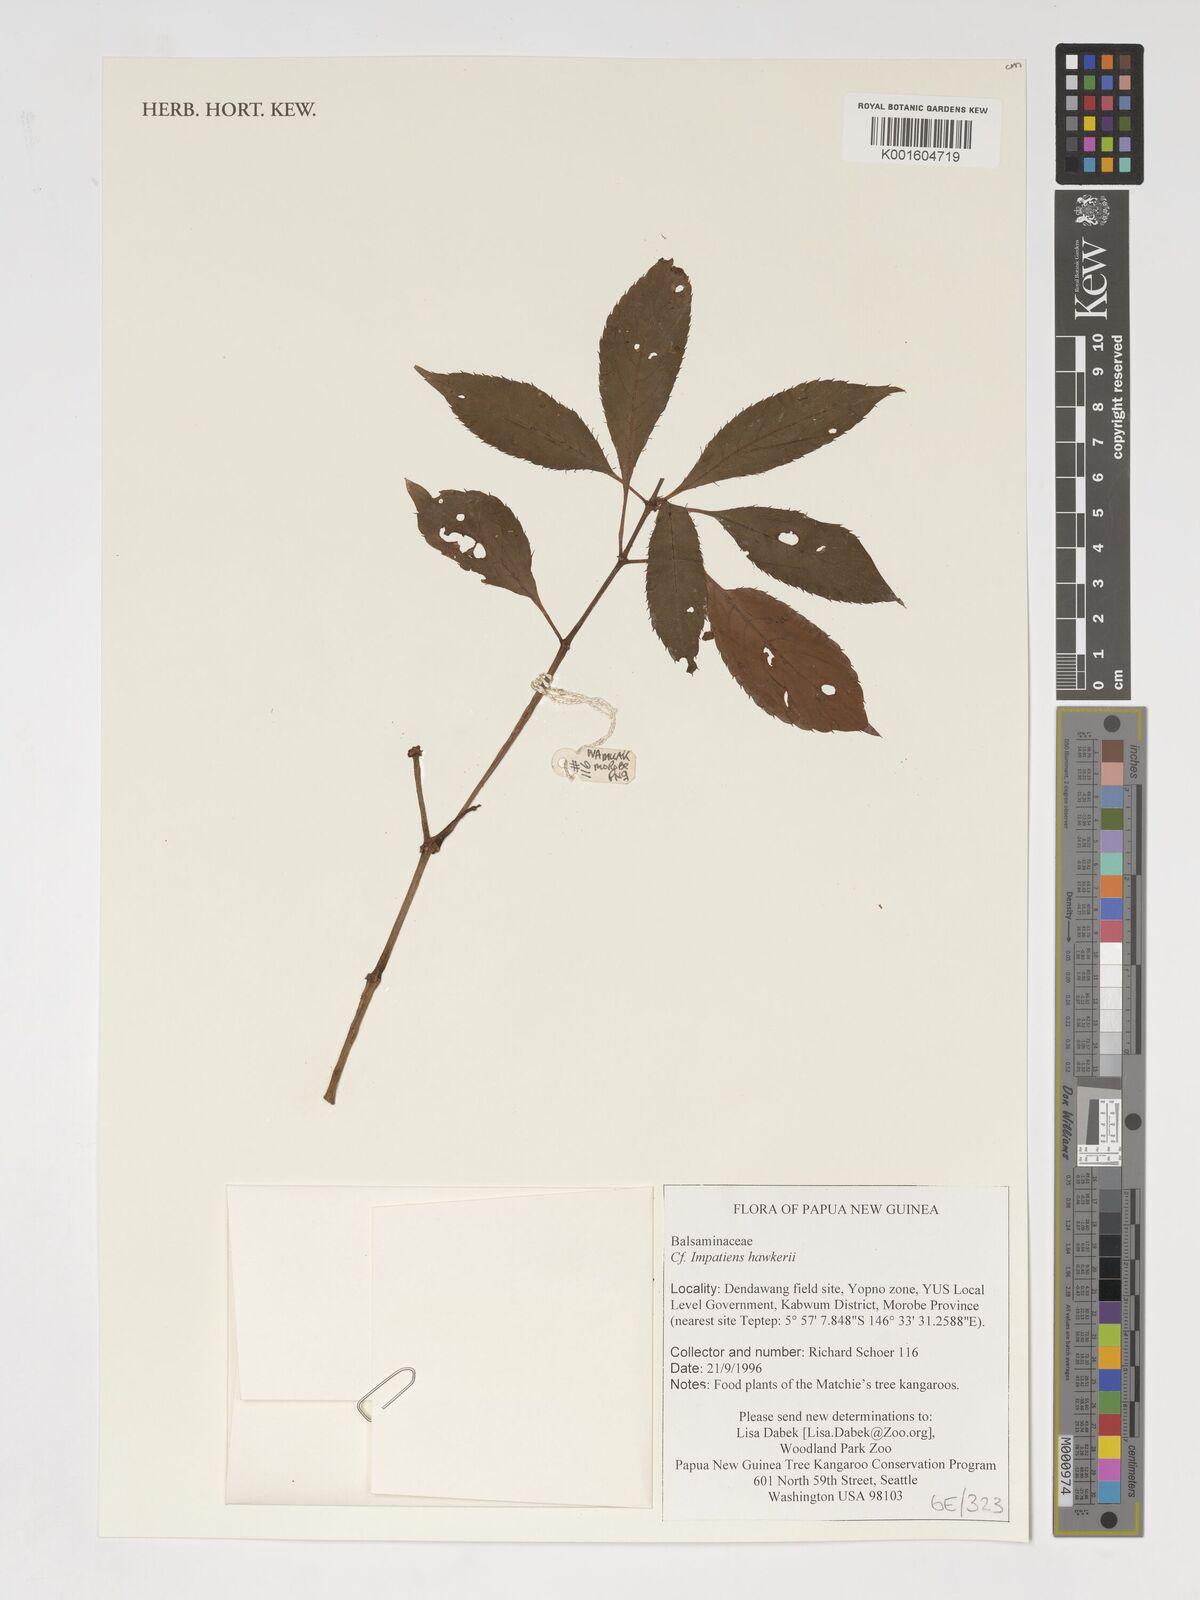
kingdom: Plantae
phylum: Tracheophyta
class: Magnoliopsida
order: Ericales
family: Balsaminaceae
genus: Impatiens
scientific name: Impatiens hawkeri
